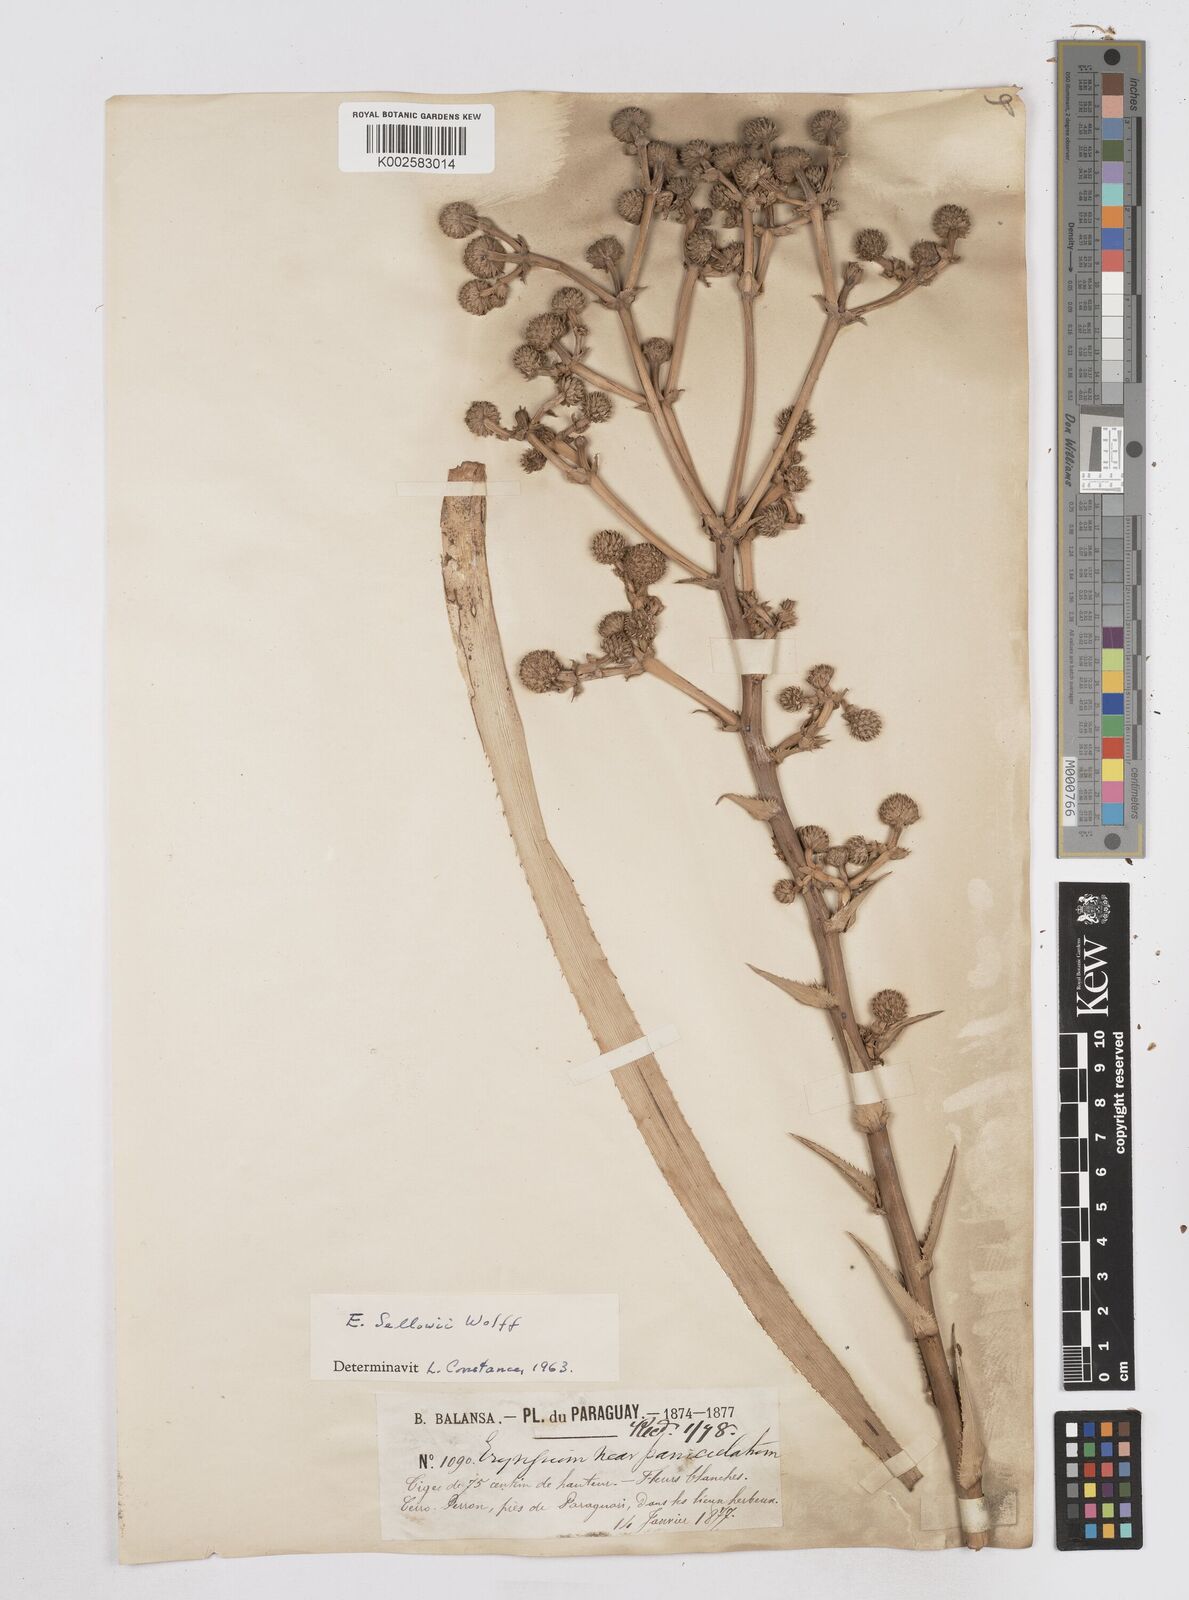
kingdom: Plantae
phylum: Tracheophyta
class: Magnoliopsida
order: Apiales
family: Apiaceae
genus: Eryngium
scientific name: Eryngium sellowii
